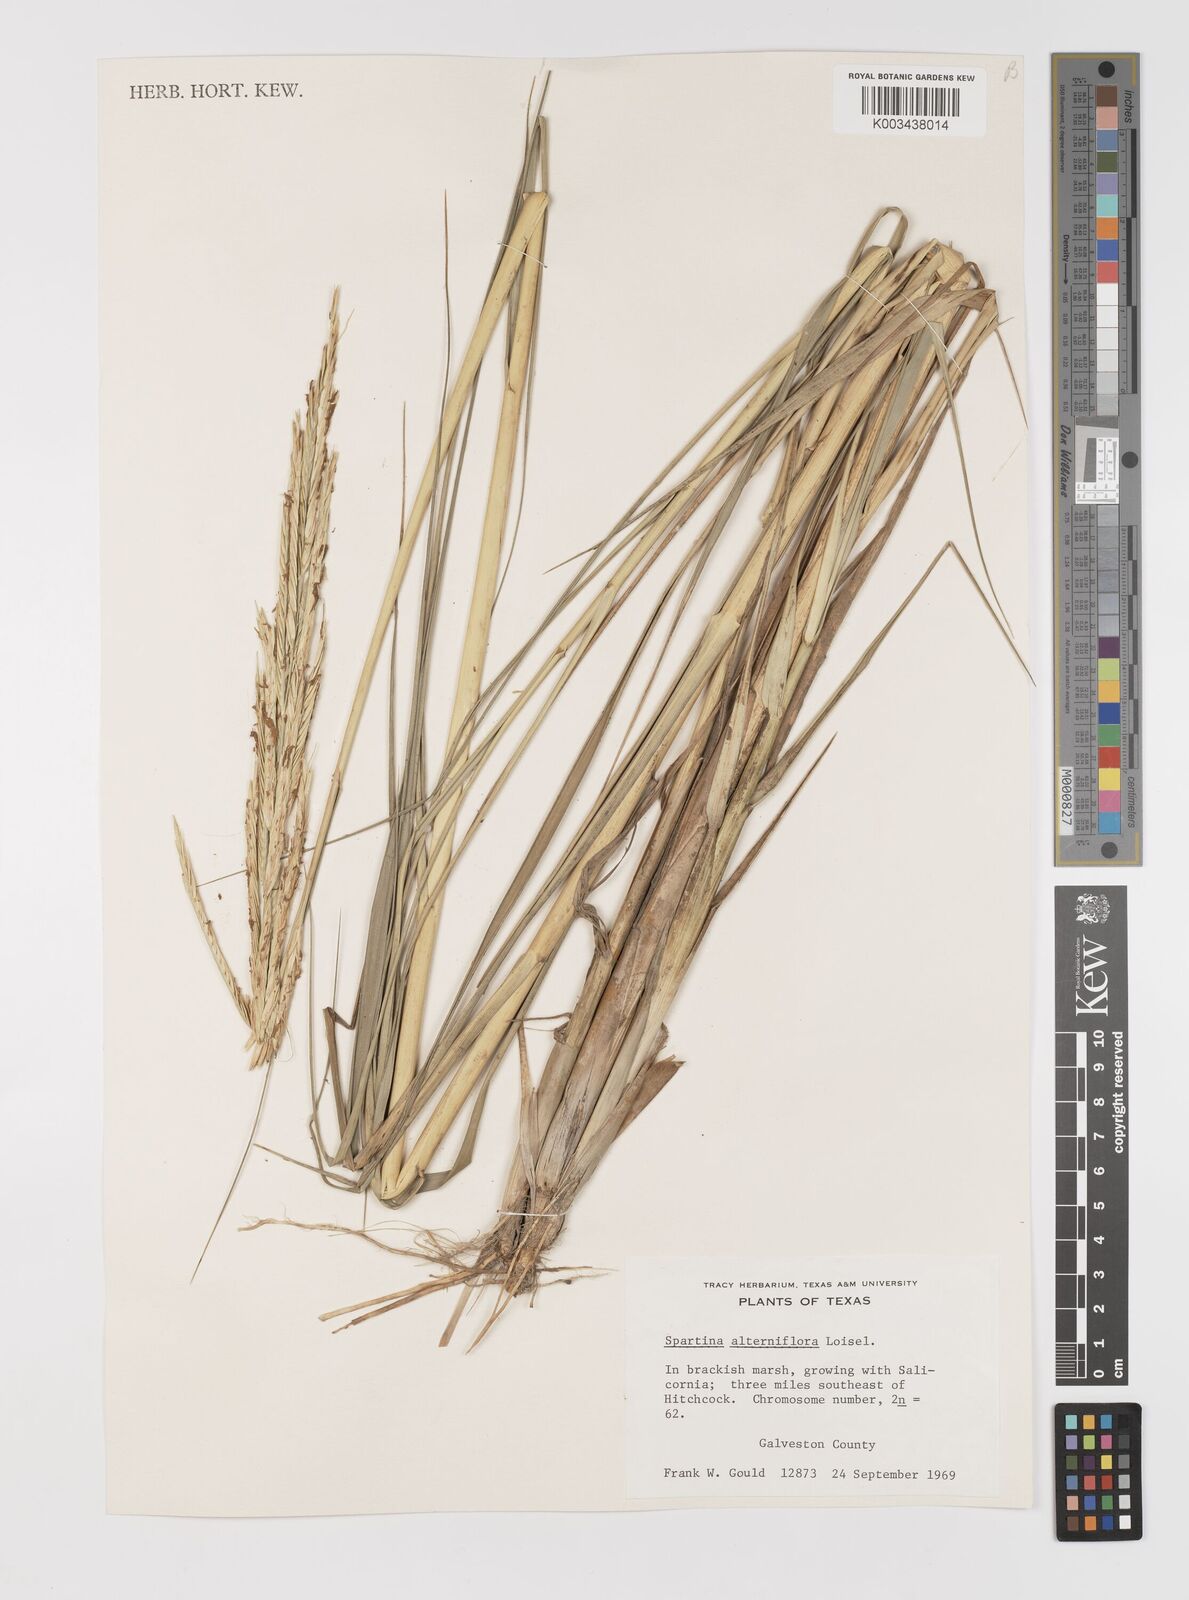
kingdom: Animalia
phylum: Mollusca
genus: Spartina
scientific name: Spartina
